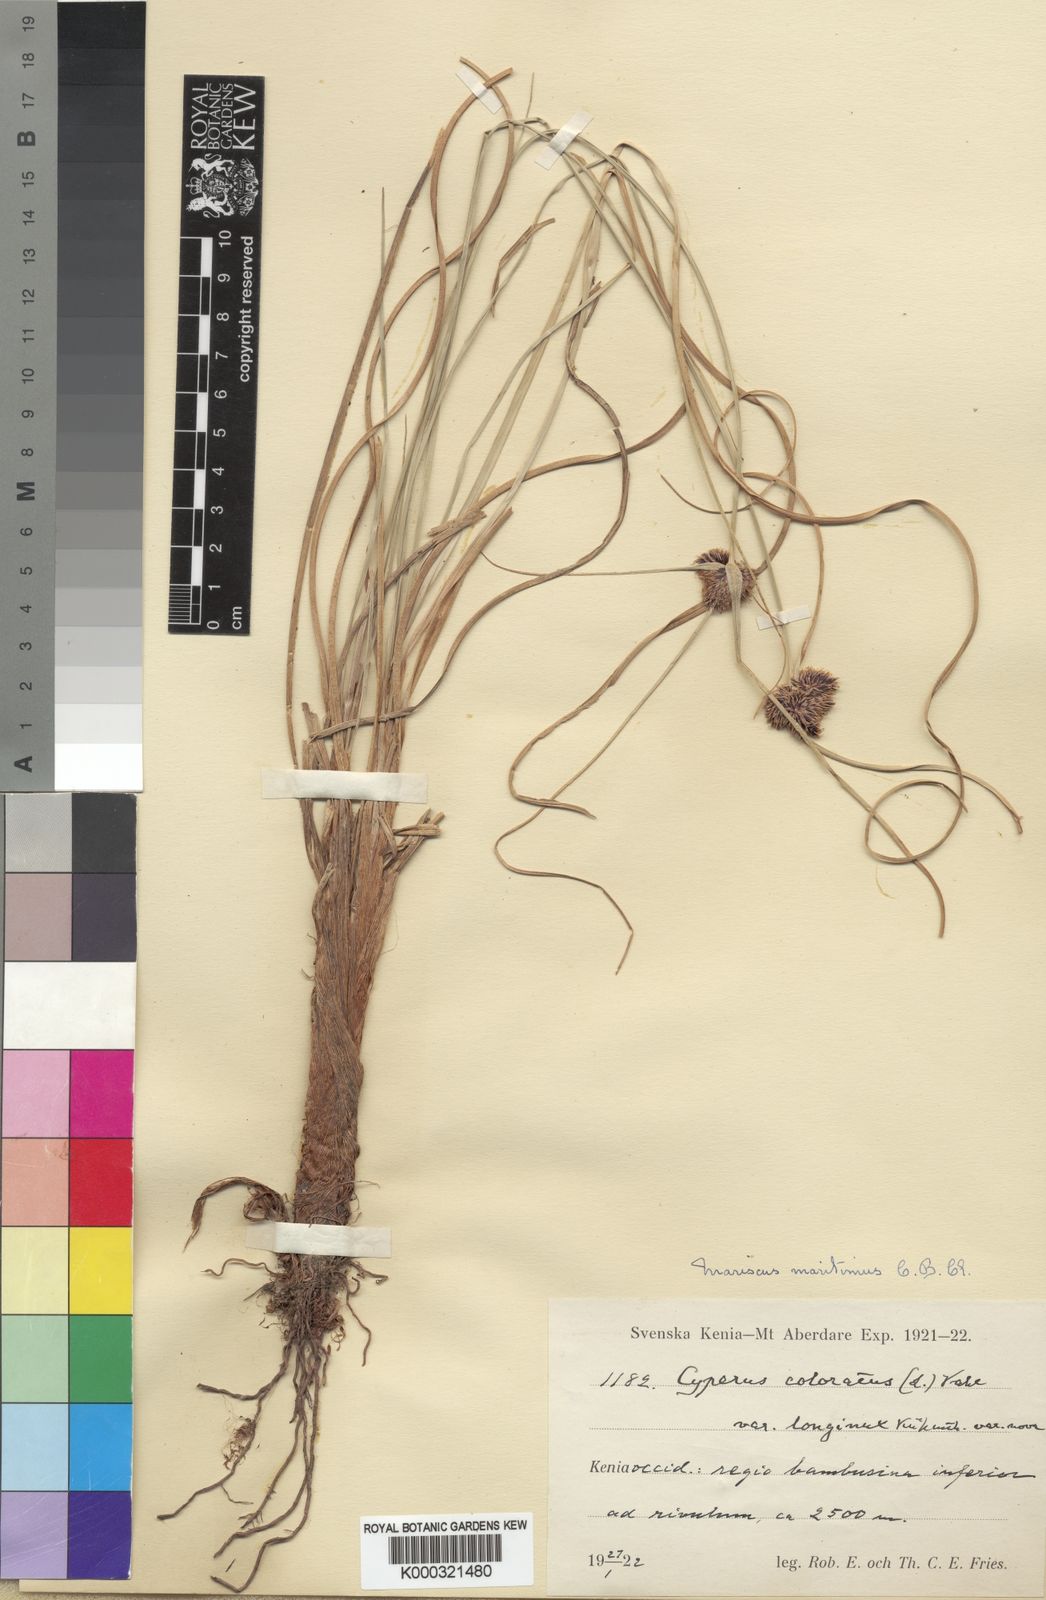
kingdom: Plantae
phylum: Tracheophyta
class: Liliopsida
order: Poales
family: Cyperaceae
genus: Cyperus
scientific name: Cyperus
